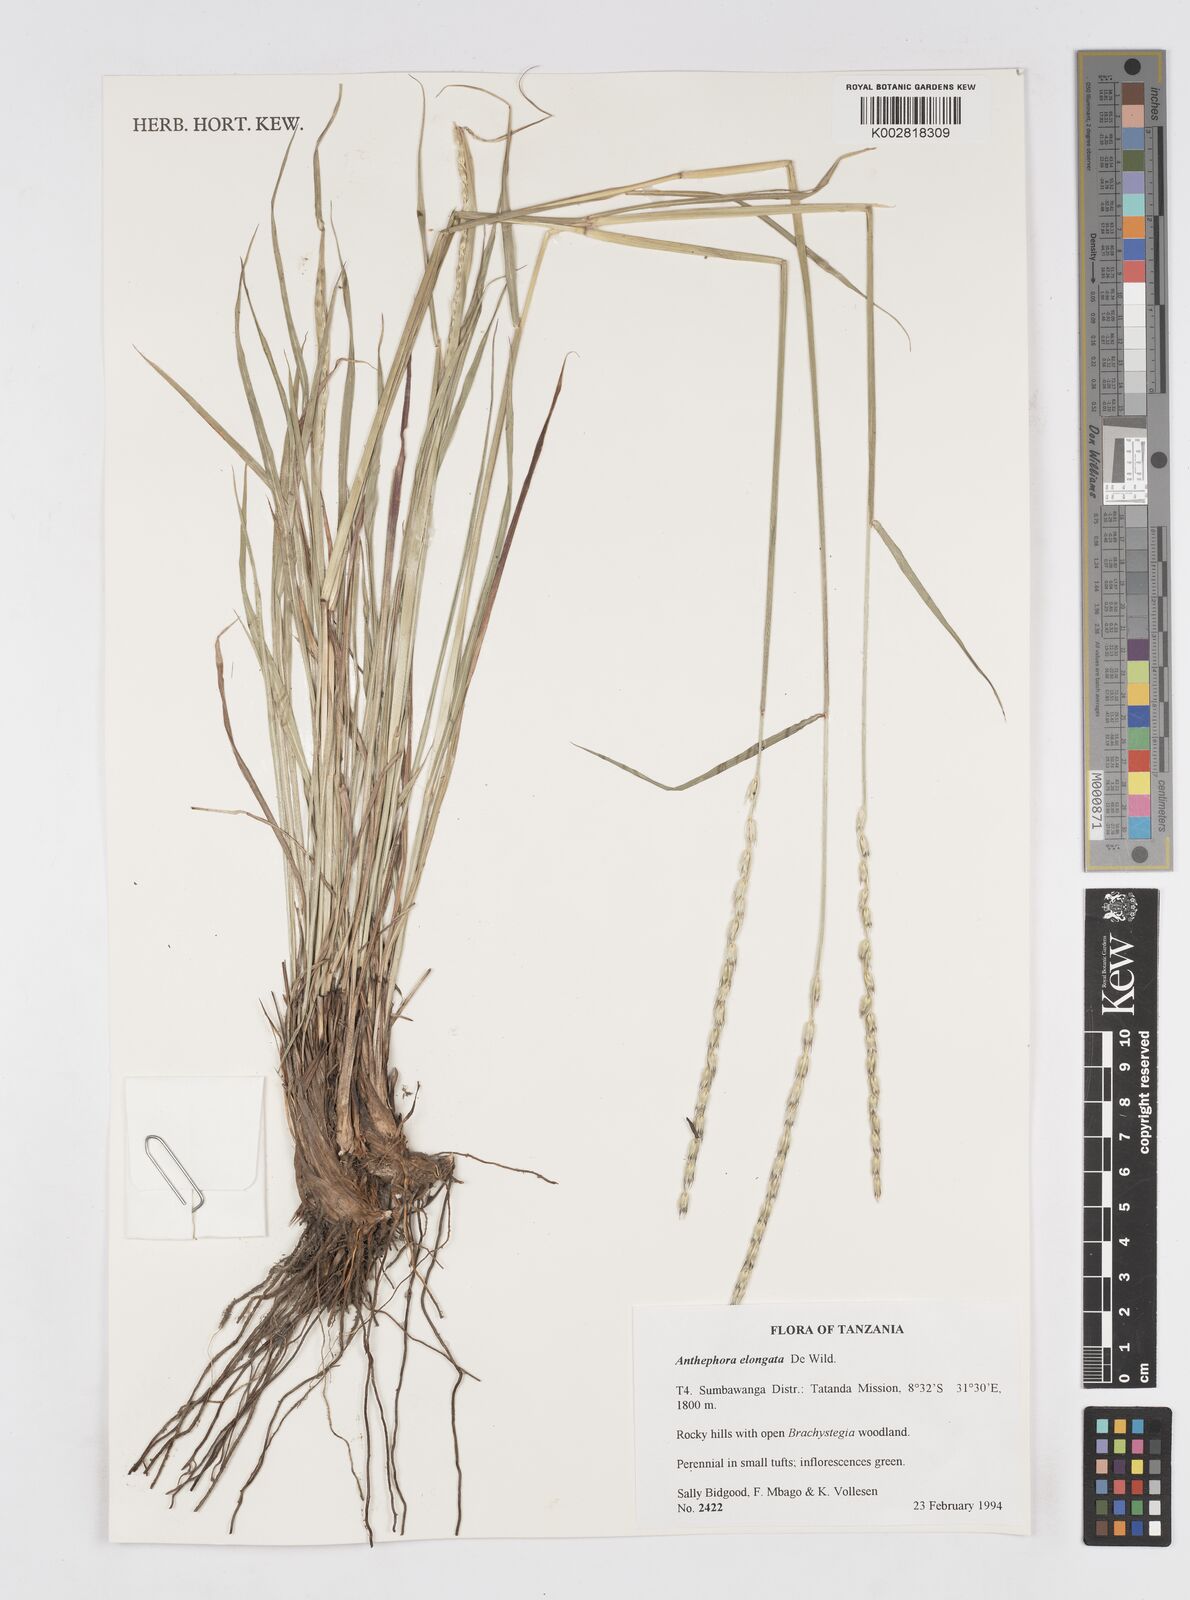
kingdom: Plantae
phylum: Tracheophyta
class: Liliopsida
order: Poales
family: Poaceae
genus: Anthephora
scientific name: Anthephora elongata
